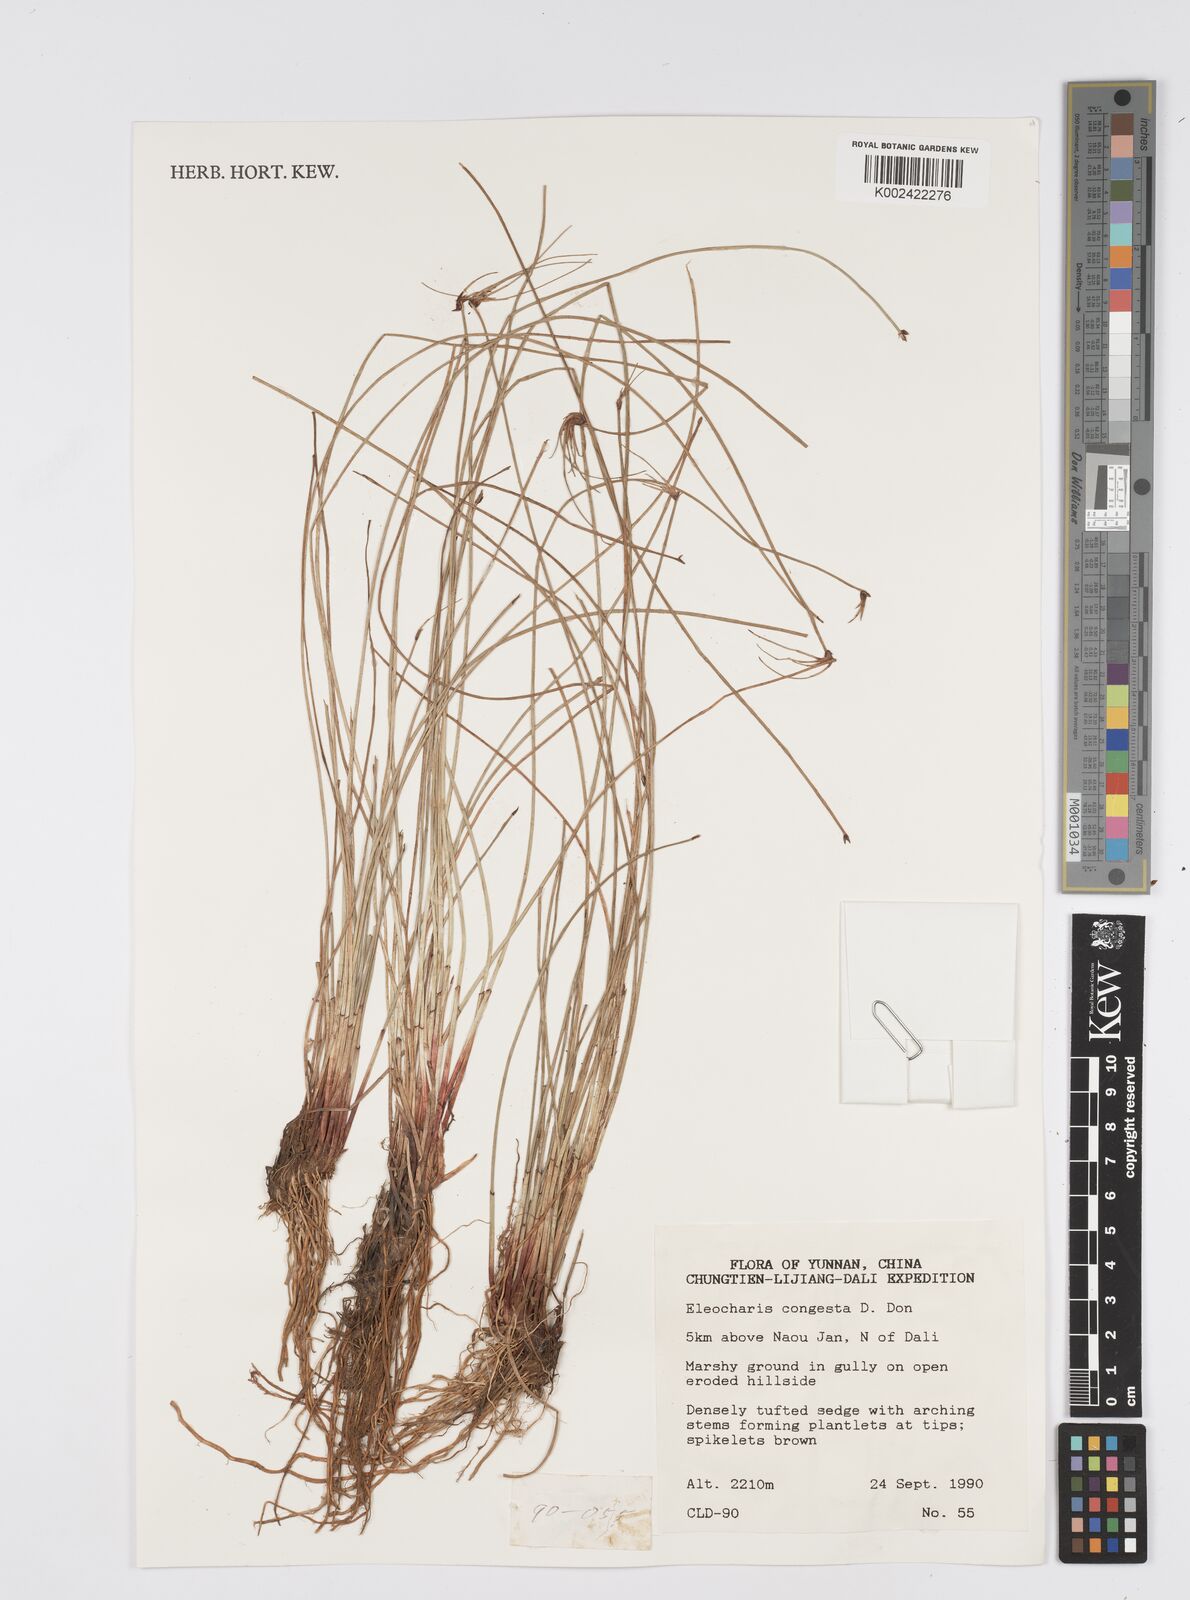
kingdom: Plantae
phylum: Tracheophyta
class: Liliopsida
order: Poales
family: Cyperaceae
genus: Eleocharis
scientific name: Eleocharis congesta
